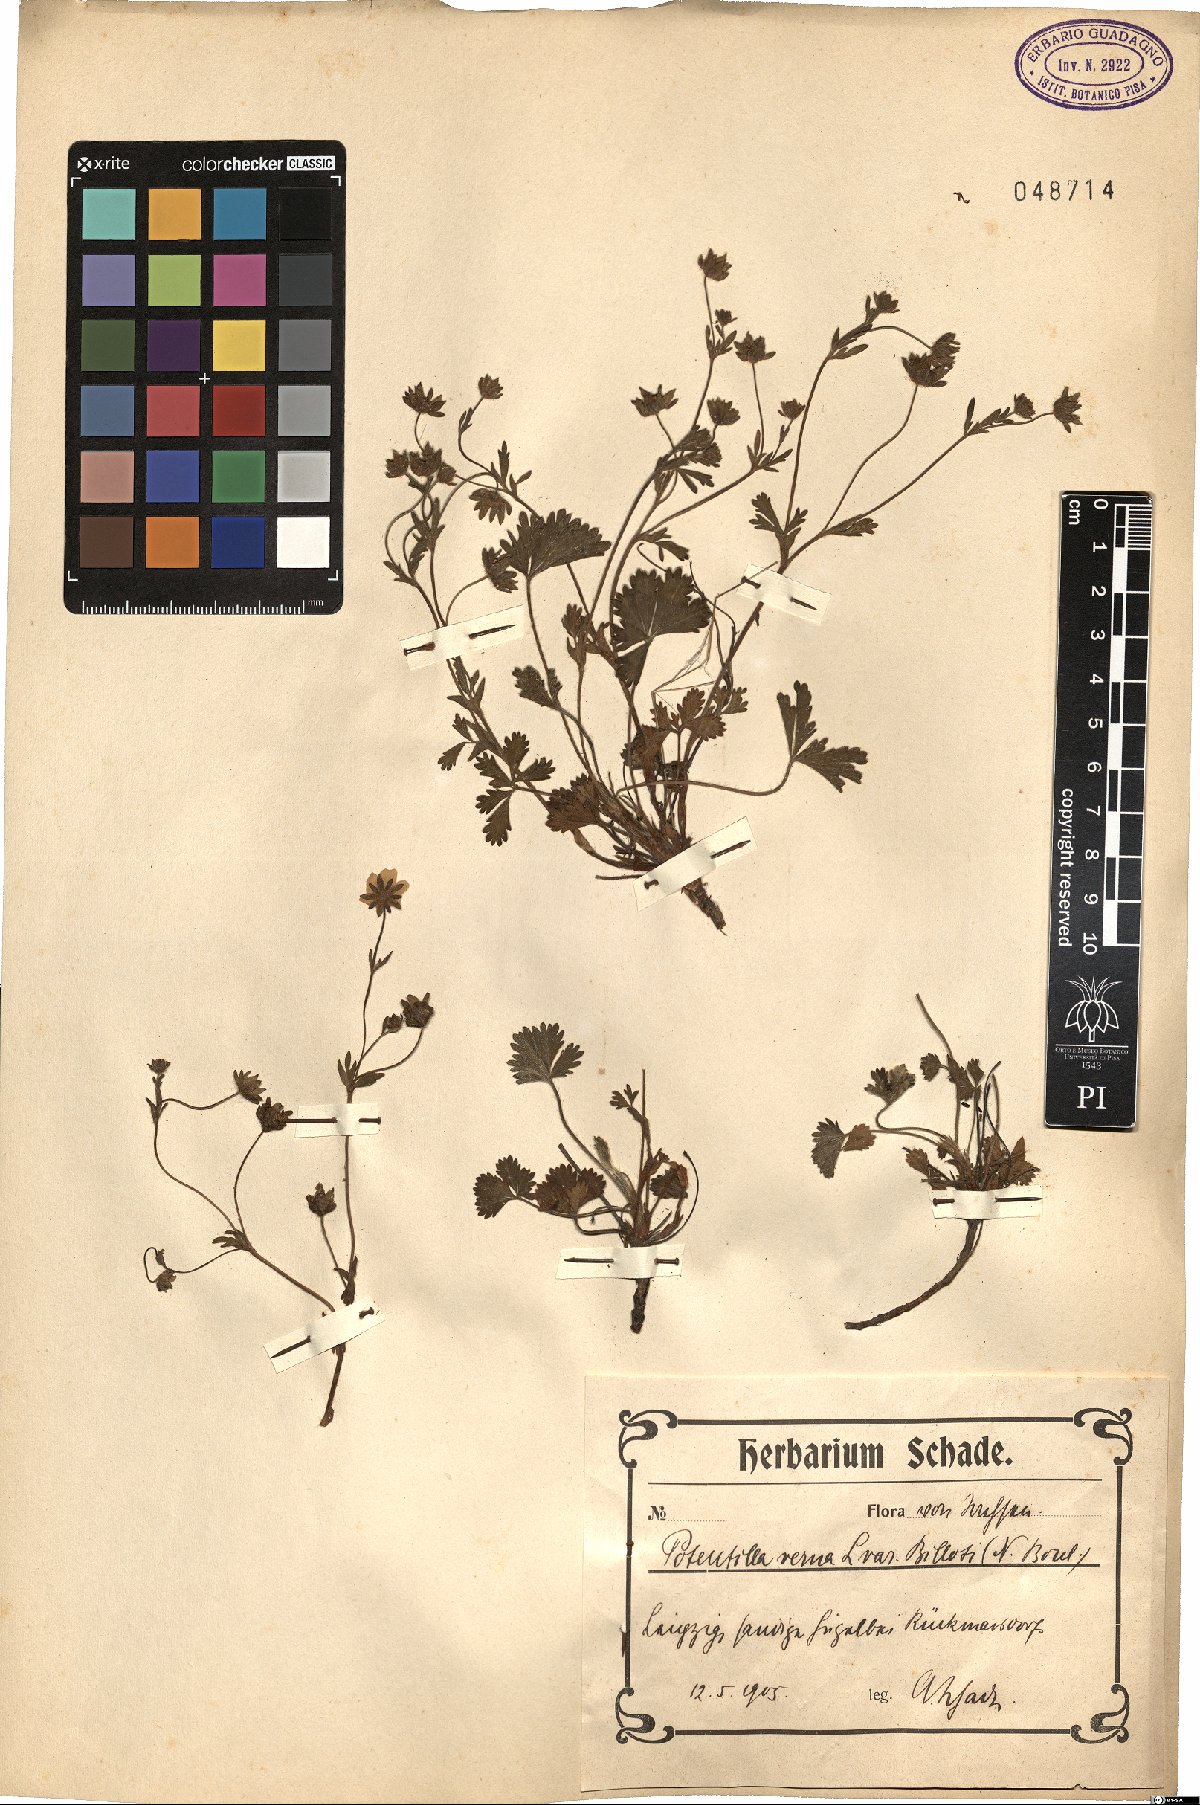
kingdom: Plantae
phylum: Tracheophyta
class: Magnoliopsida
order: Rosales
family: Rosaceae
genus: Potentilla
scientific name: Potentilla verna
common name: Spring cinquefoil
